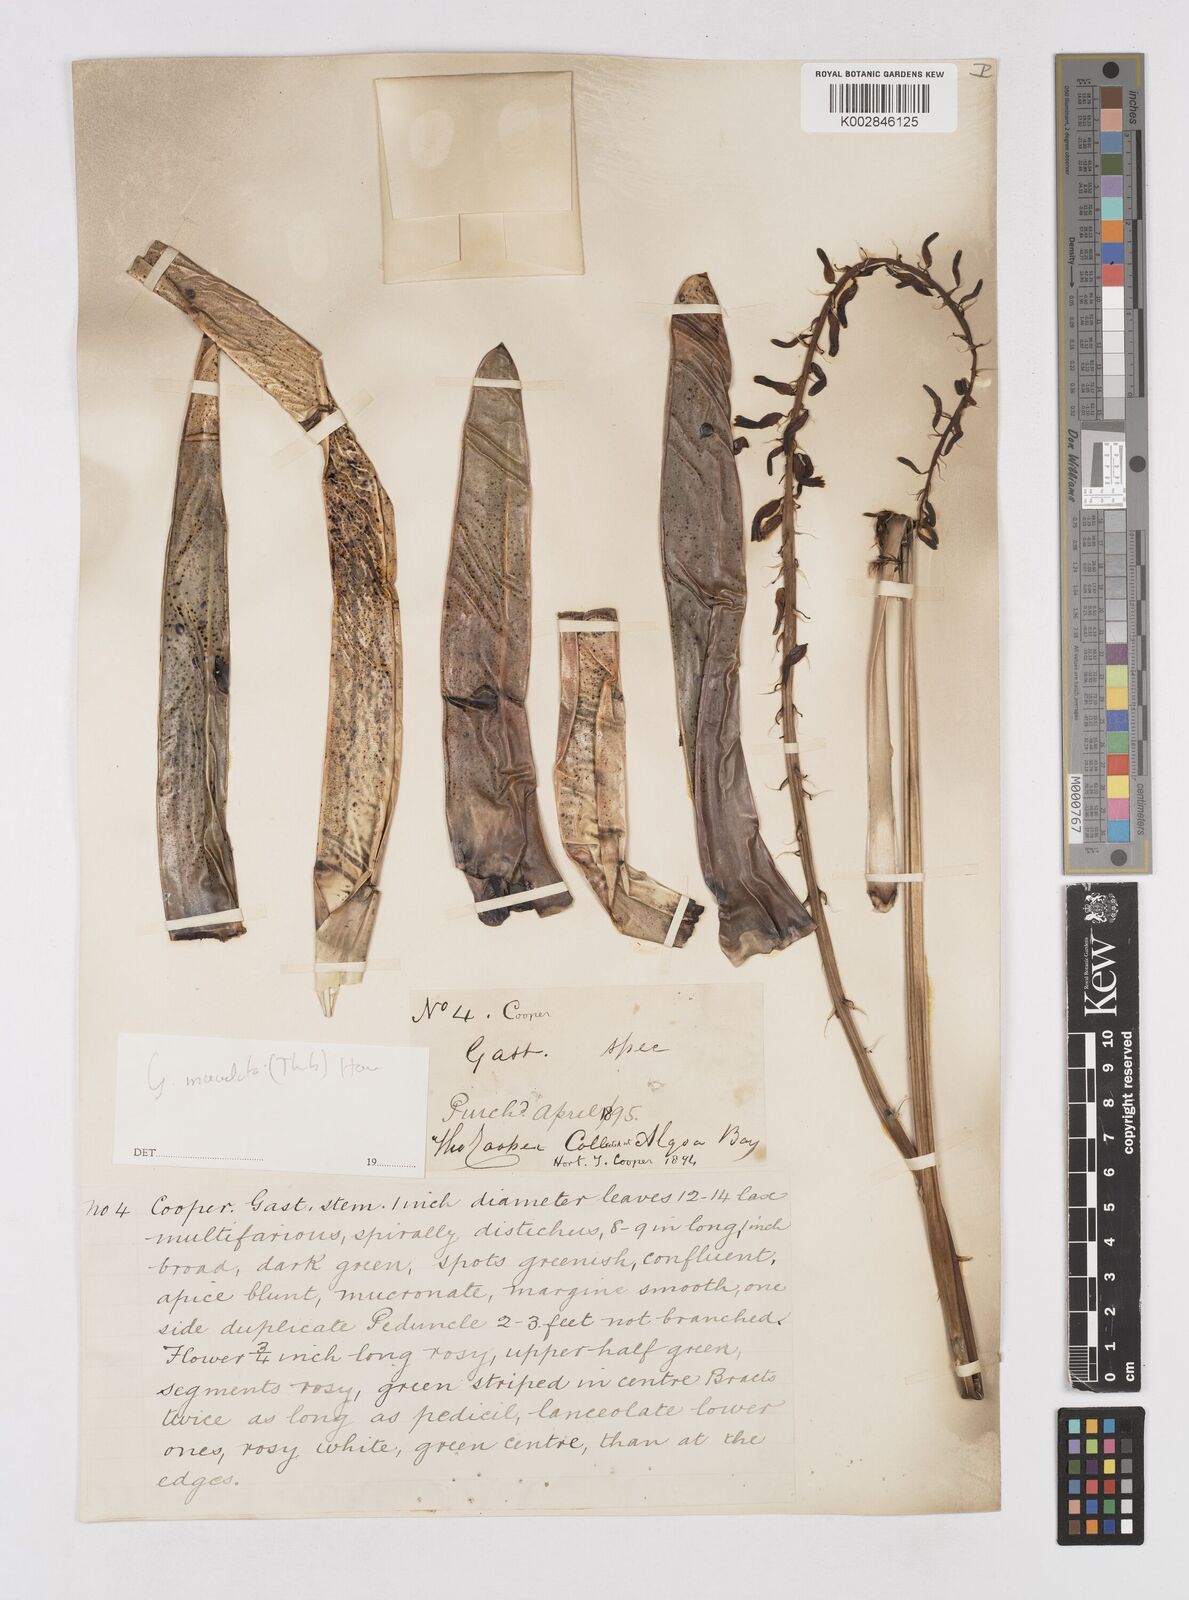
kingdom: Plantae
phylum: Tracheophyta
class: Liliopsida
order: Asparagales
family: Asphodelaceae
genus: Gasteria
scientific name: Gasteria
